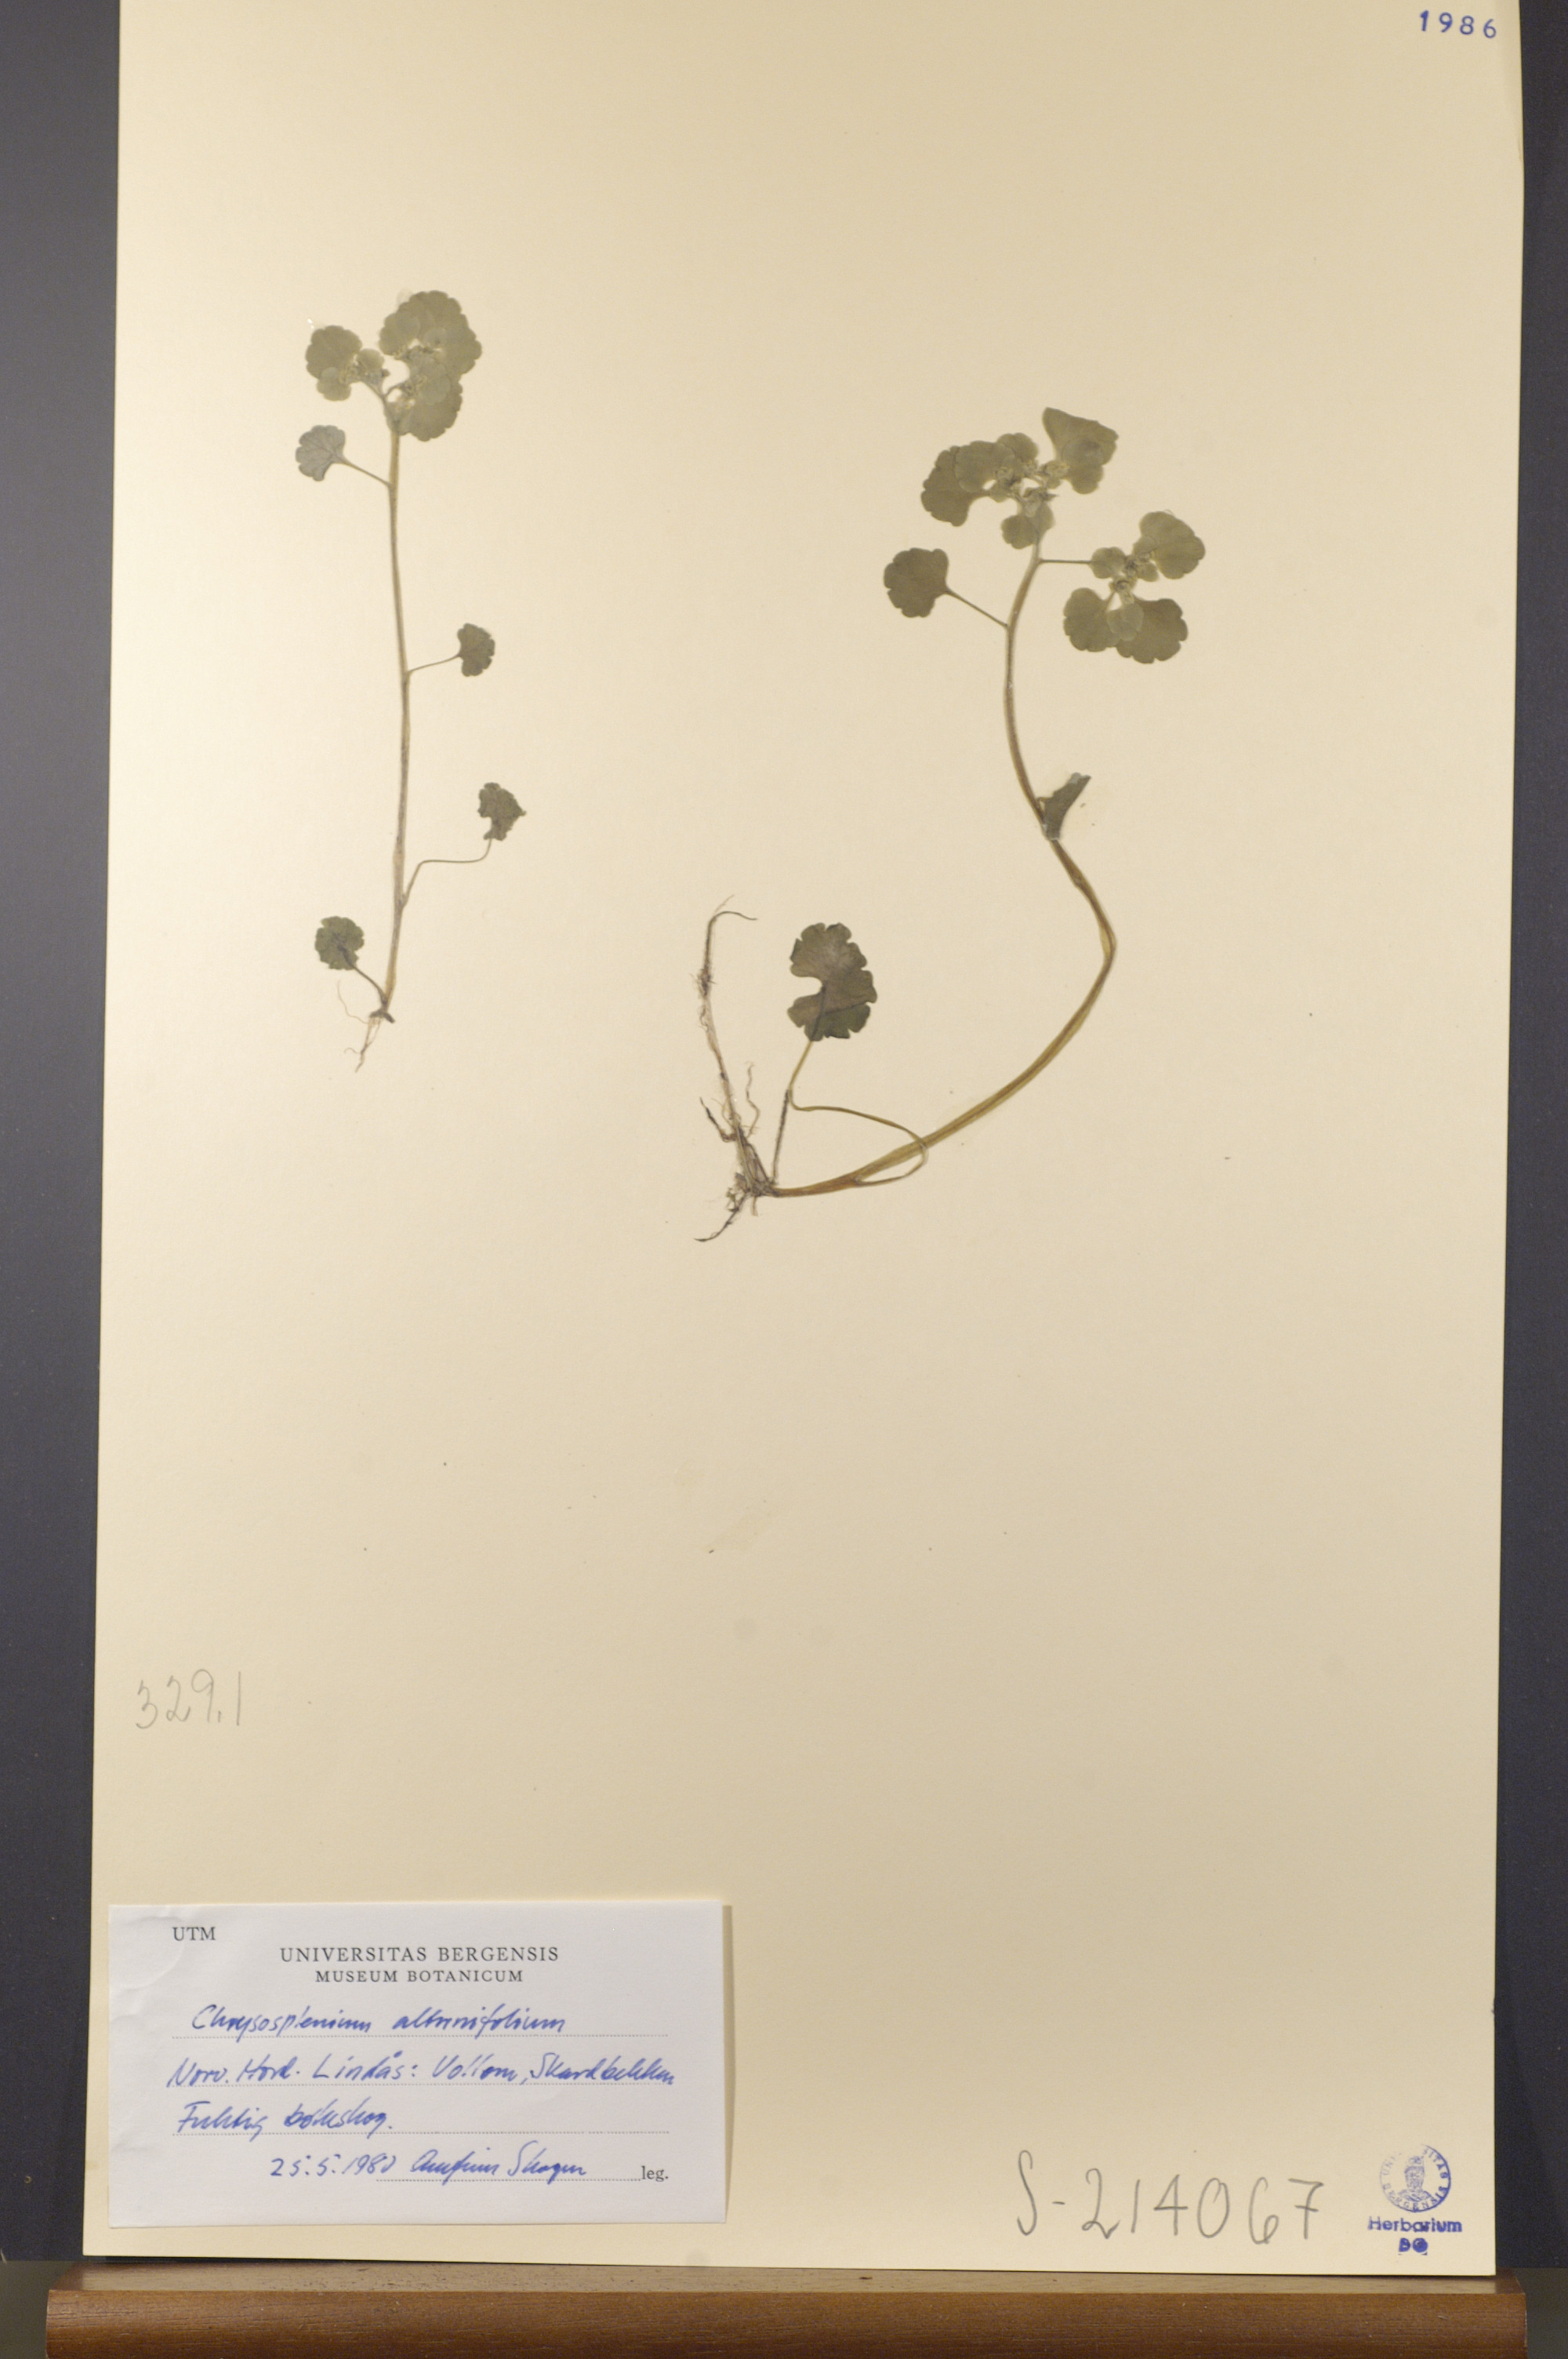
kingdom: Plantae
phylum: Tracheophyta
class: Magnoliopsida
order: Saxifragales
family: Saxifragaceae
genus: Chrysosplenium
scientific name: Chrysosplenium alternifolium
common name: Alternate-leaved golden-saxifrage
